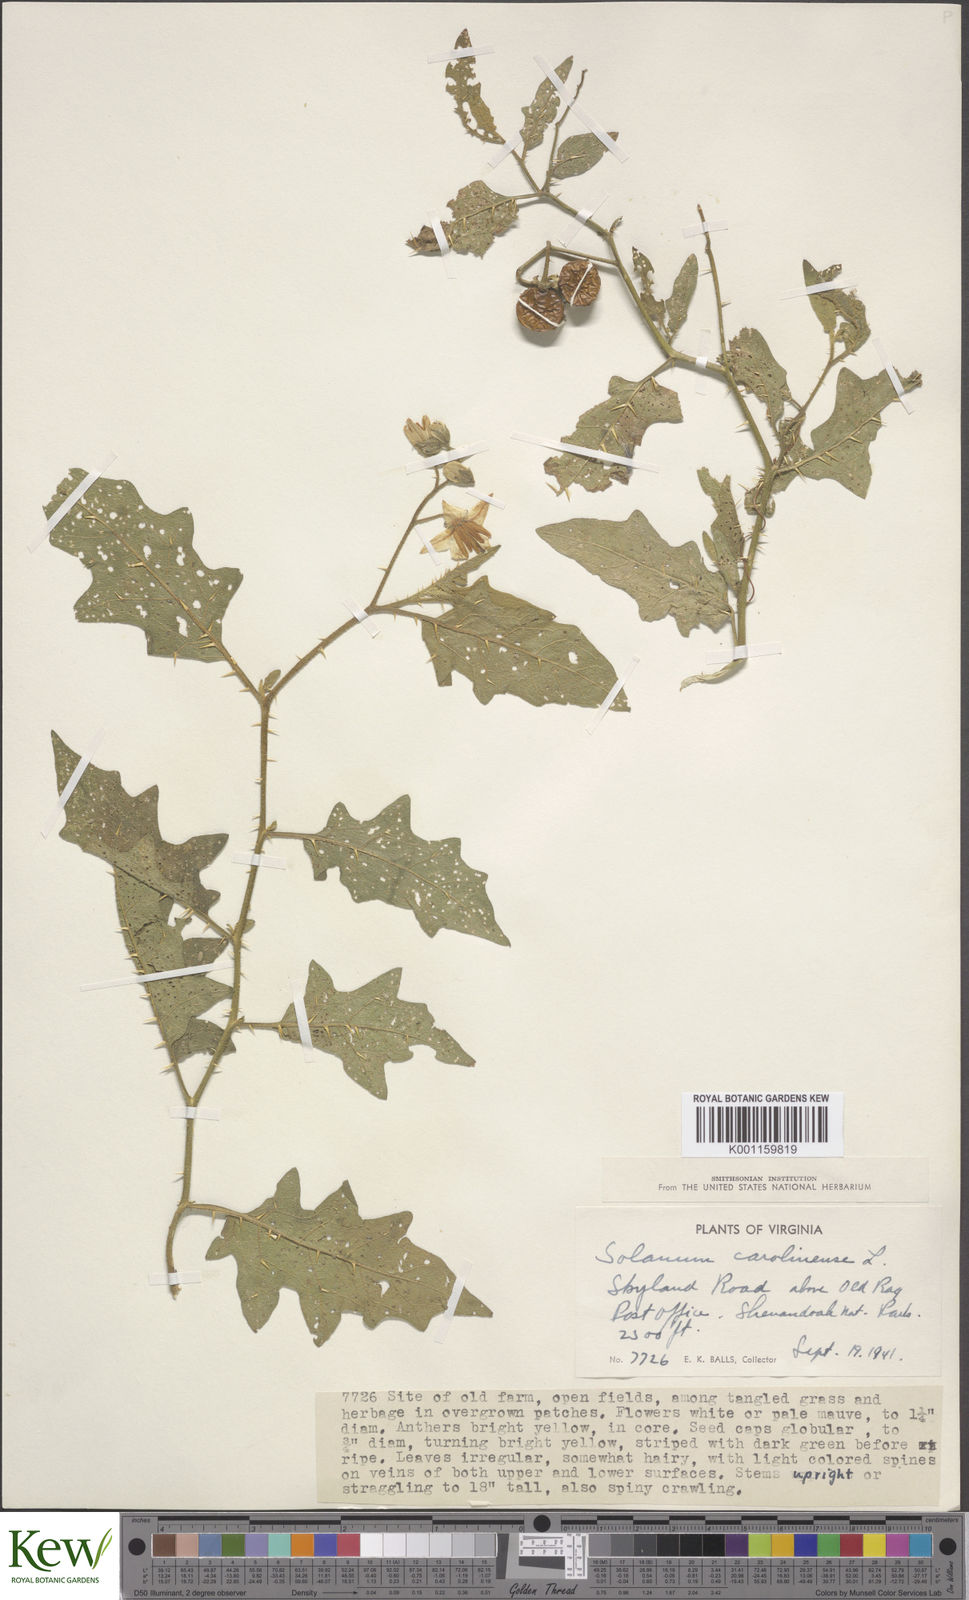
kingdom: Plantae
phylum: Tracheophyta
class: Magnoliopsida
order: Solanales
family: Solanaceae
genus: Solanum
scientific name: Solanum carolinense
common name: Horse-nettle
